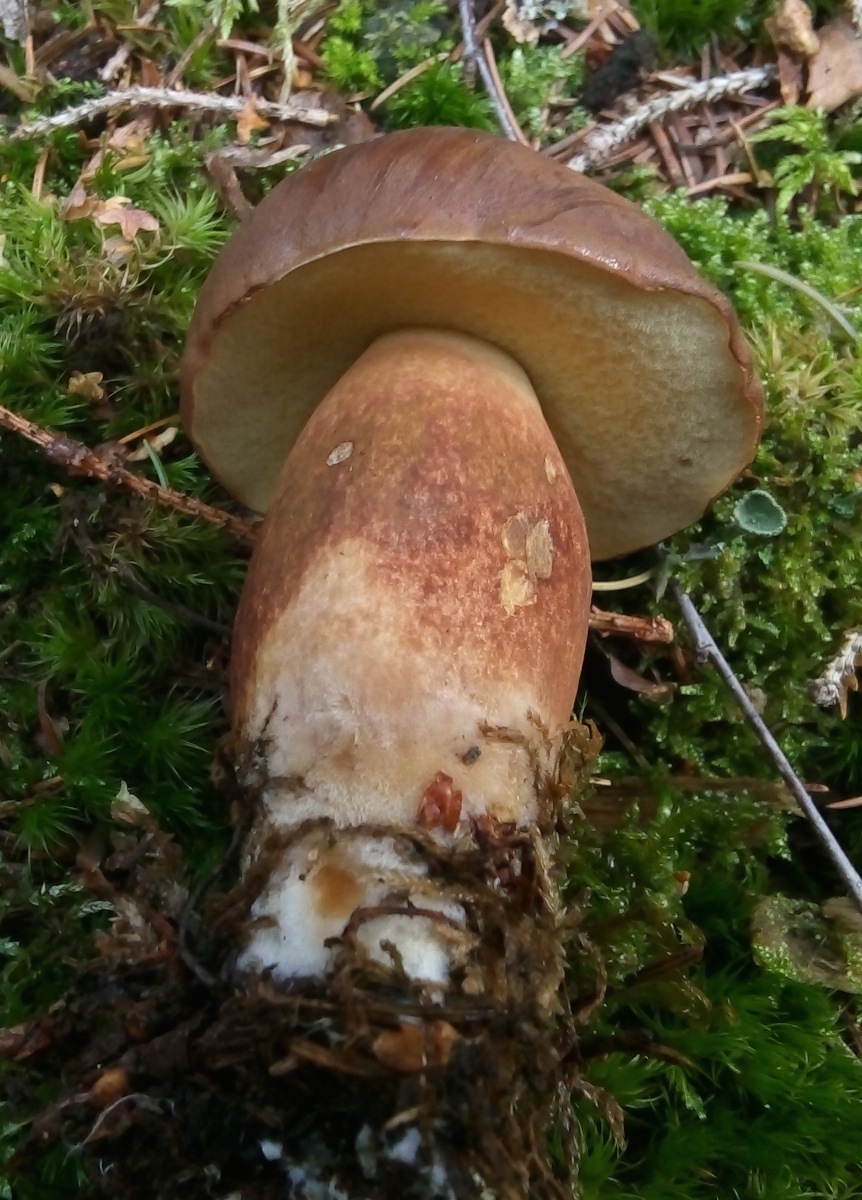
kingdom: Fungi
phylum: Basidiomycota
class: Agaricomycetes
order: Boletales
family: Boletaceae
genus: Imleria
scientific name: Imleria badia
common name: brunstokket rørhat
